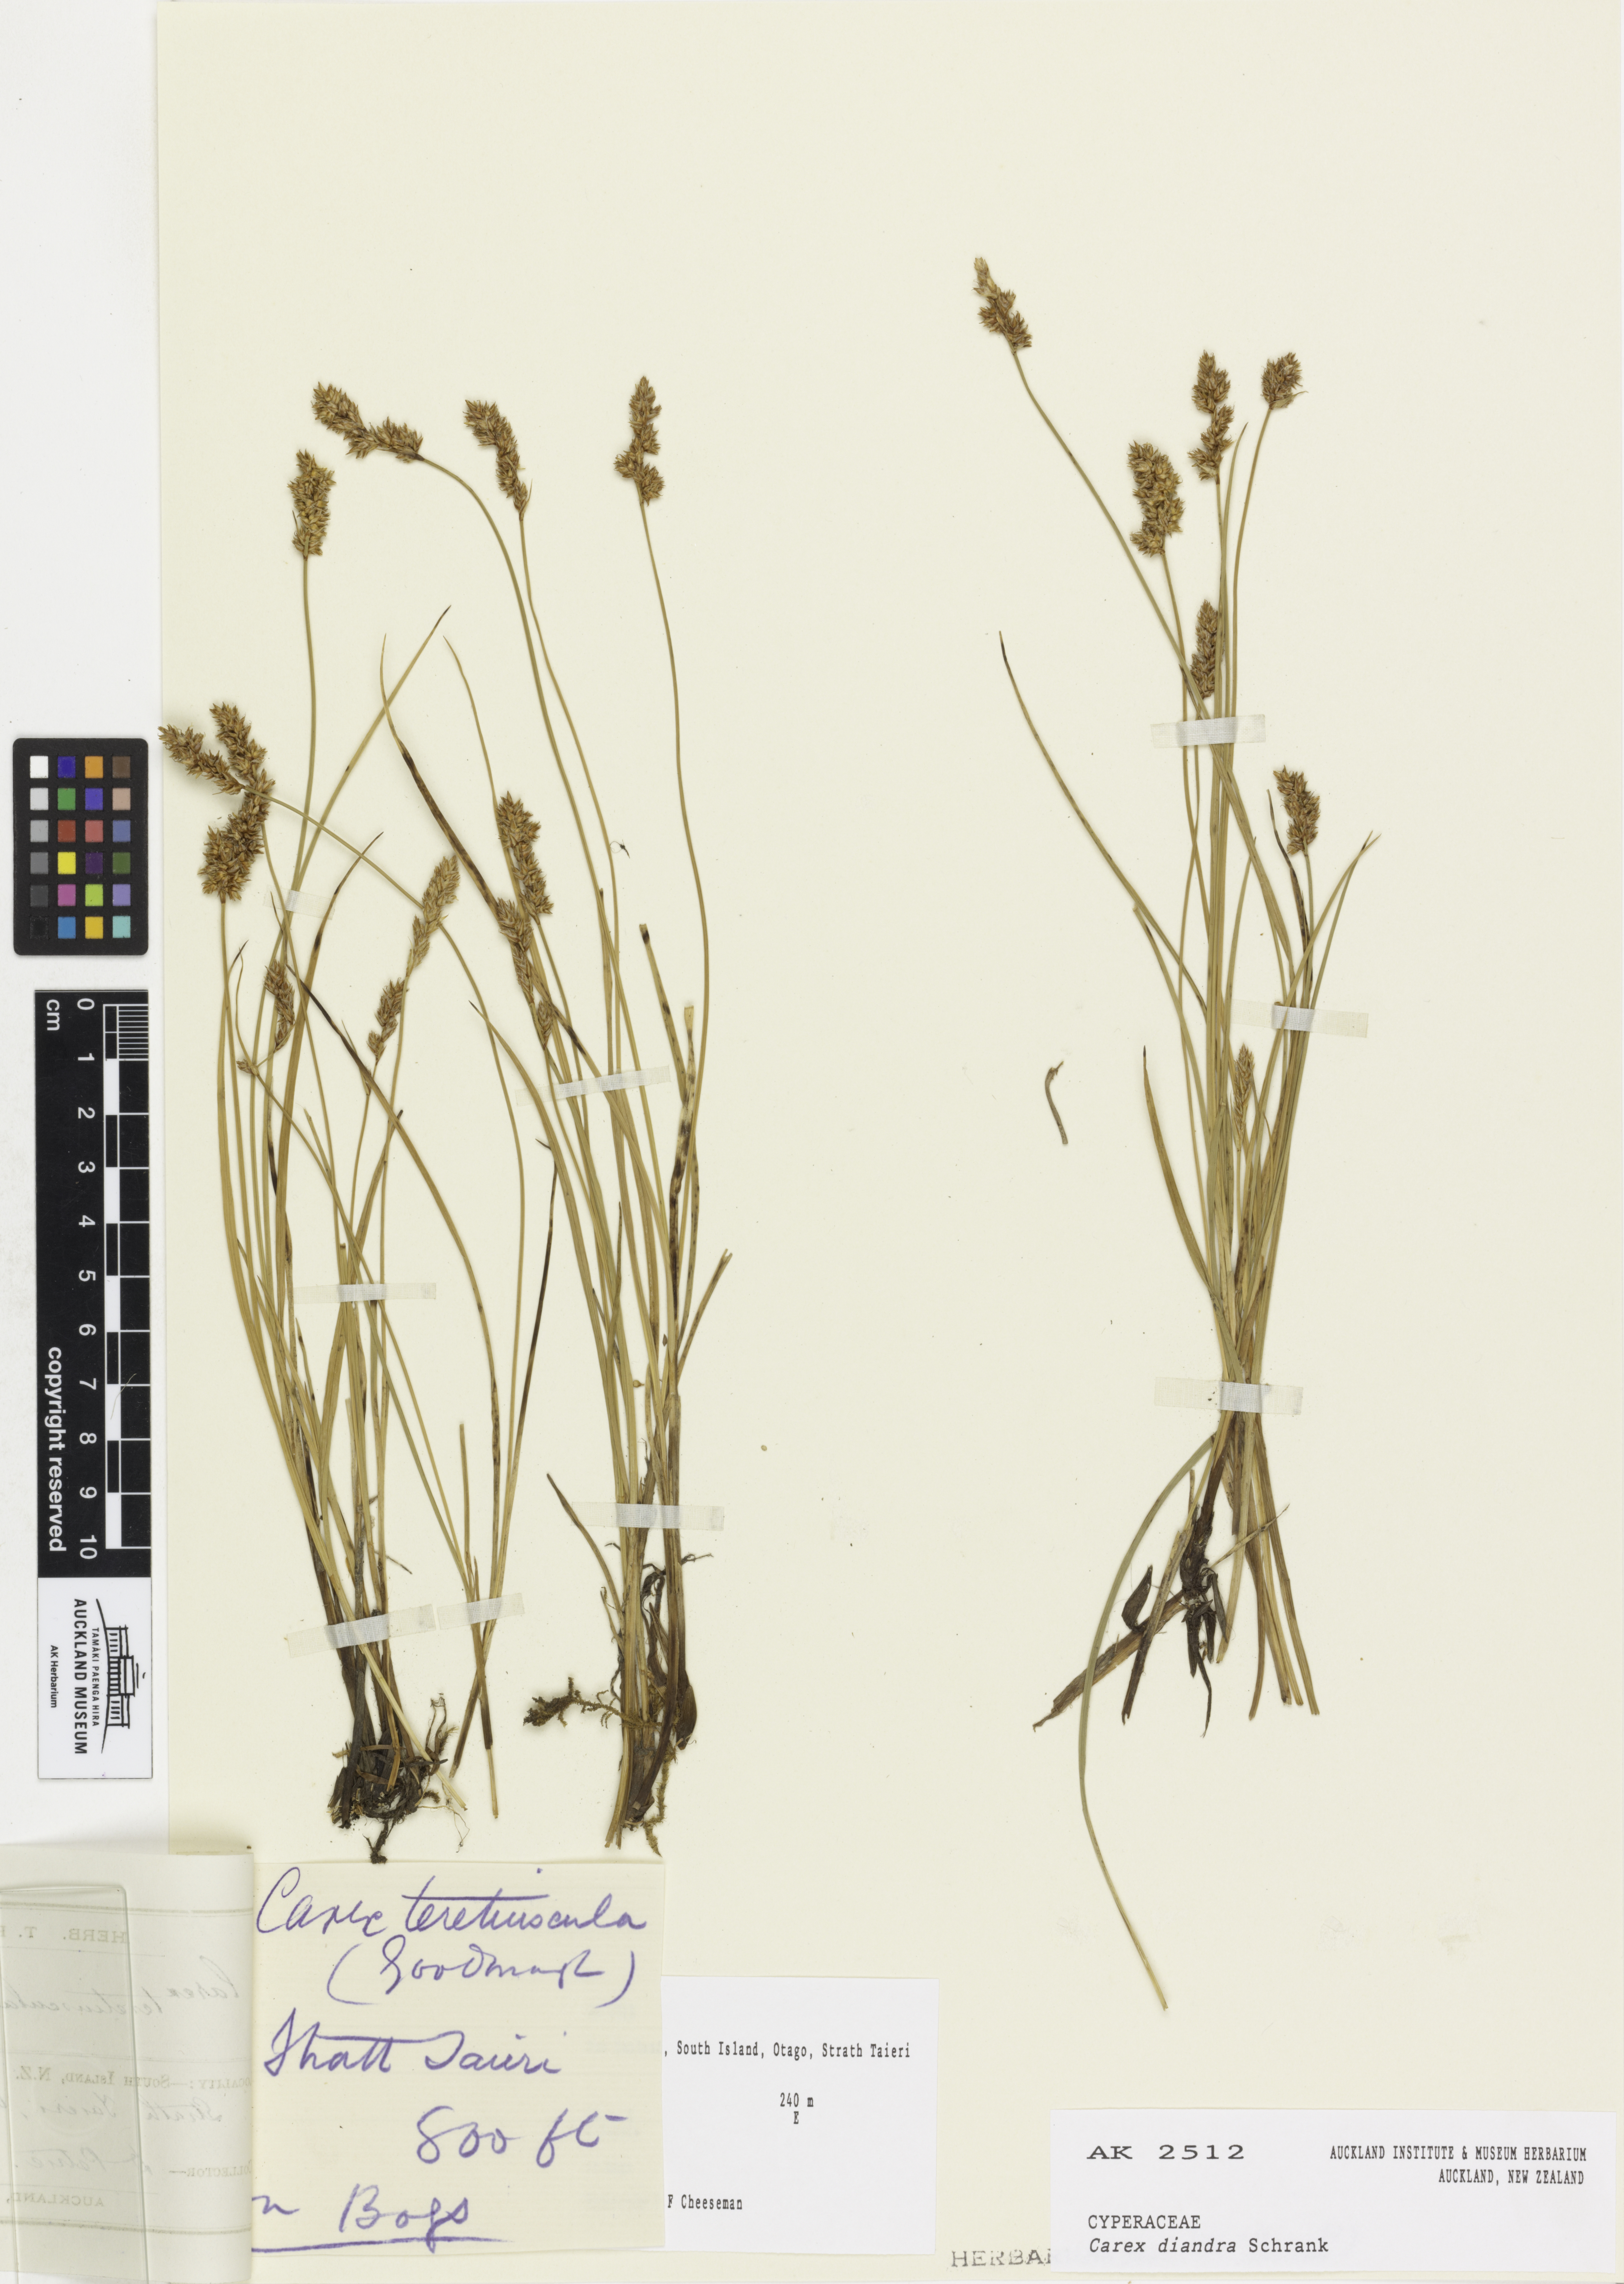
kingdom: Plantae
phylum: Tracheophyta
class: Liliopsida
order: Poales
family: Cyperaceae
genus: Carex
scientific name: Carex diandra
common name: Lesser tussock-sedge
